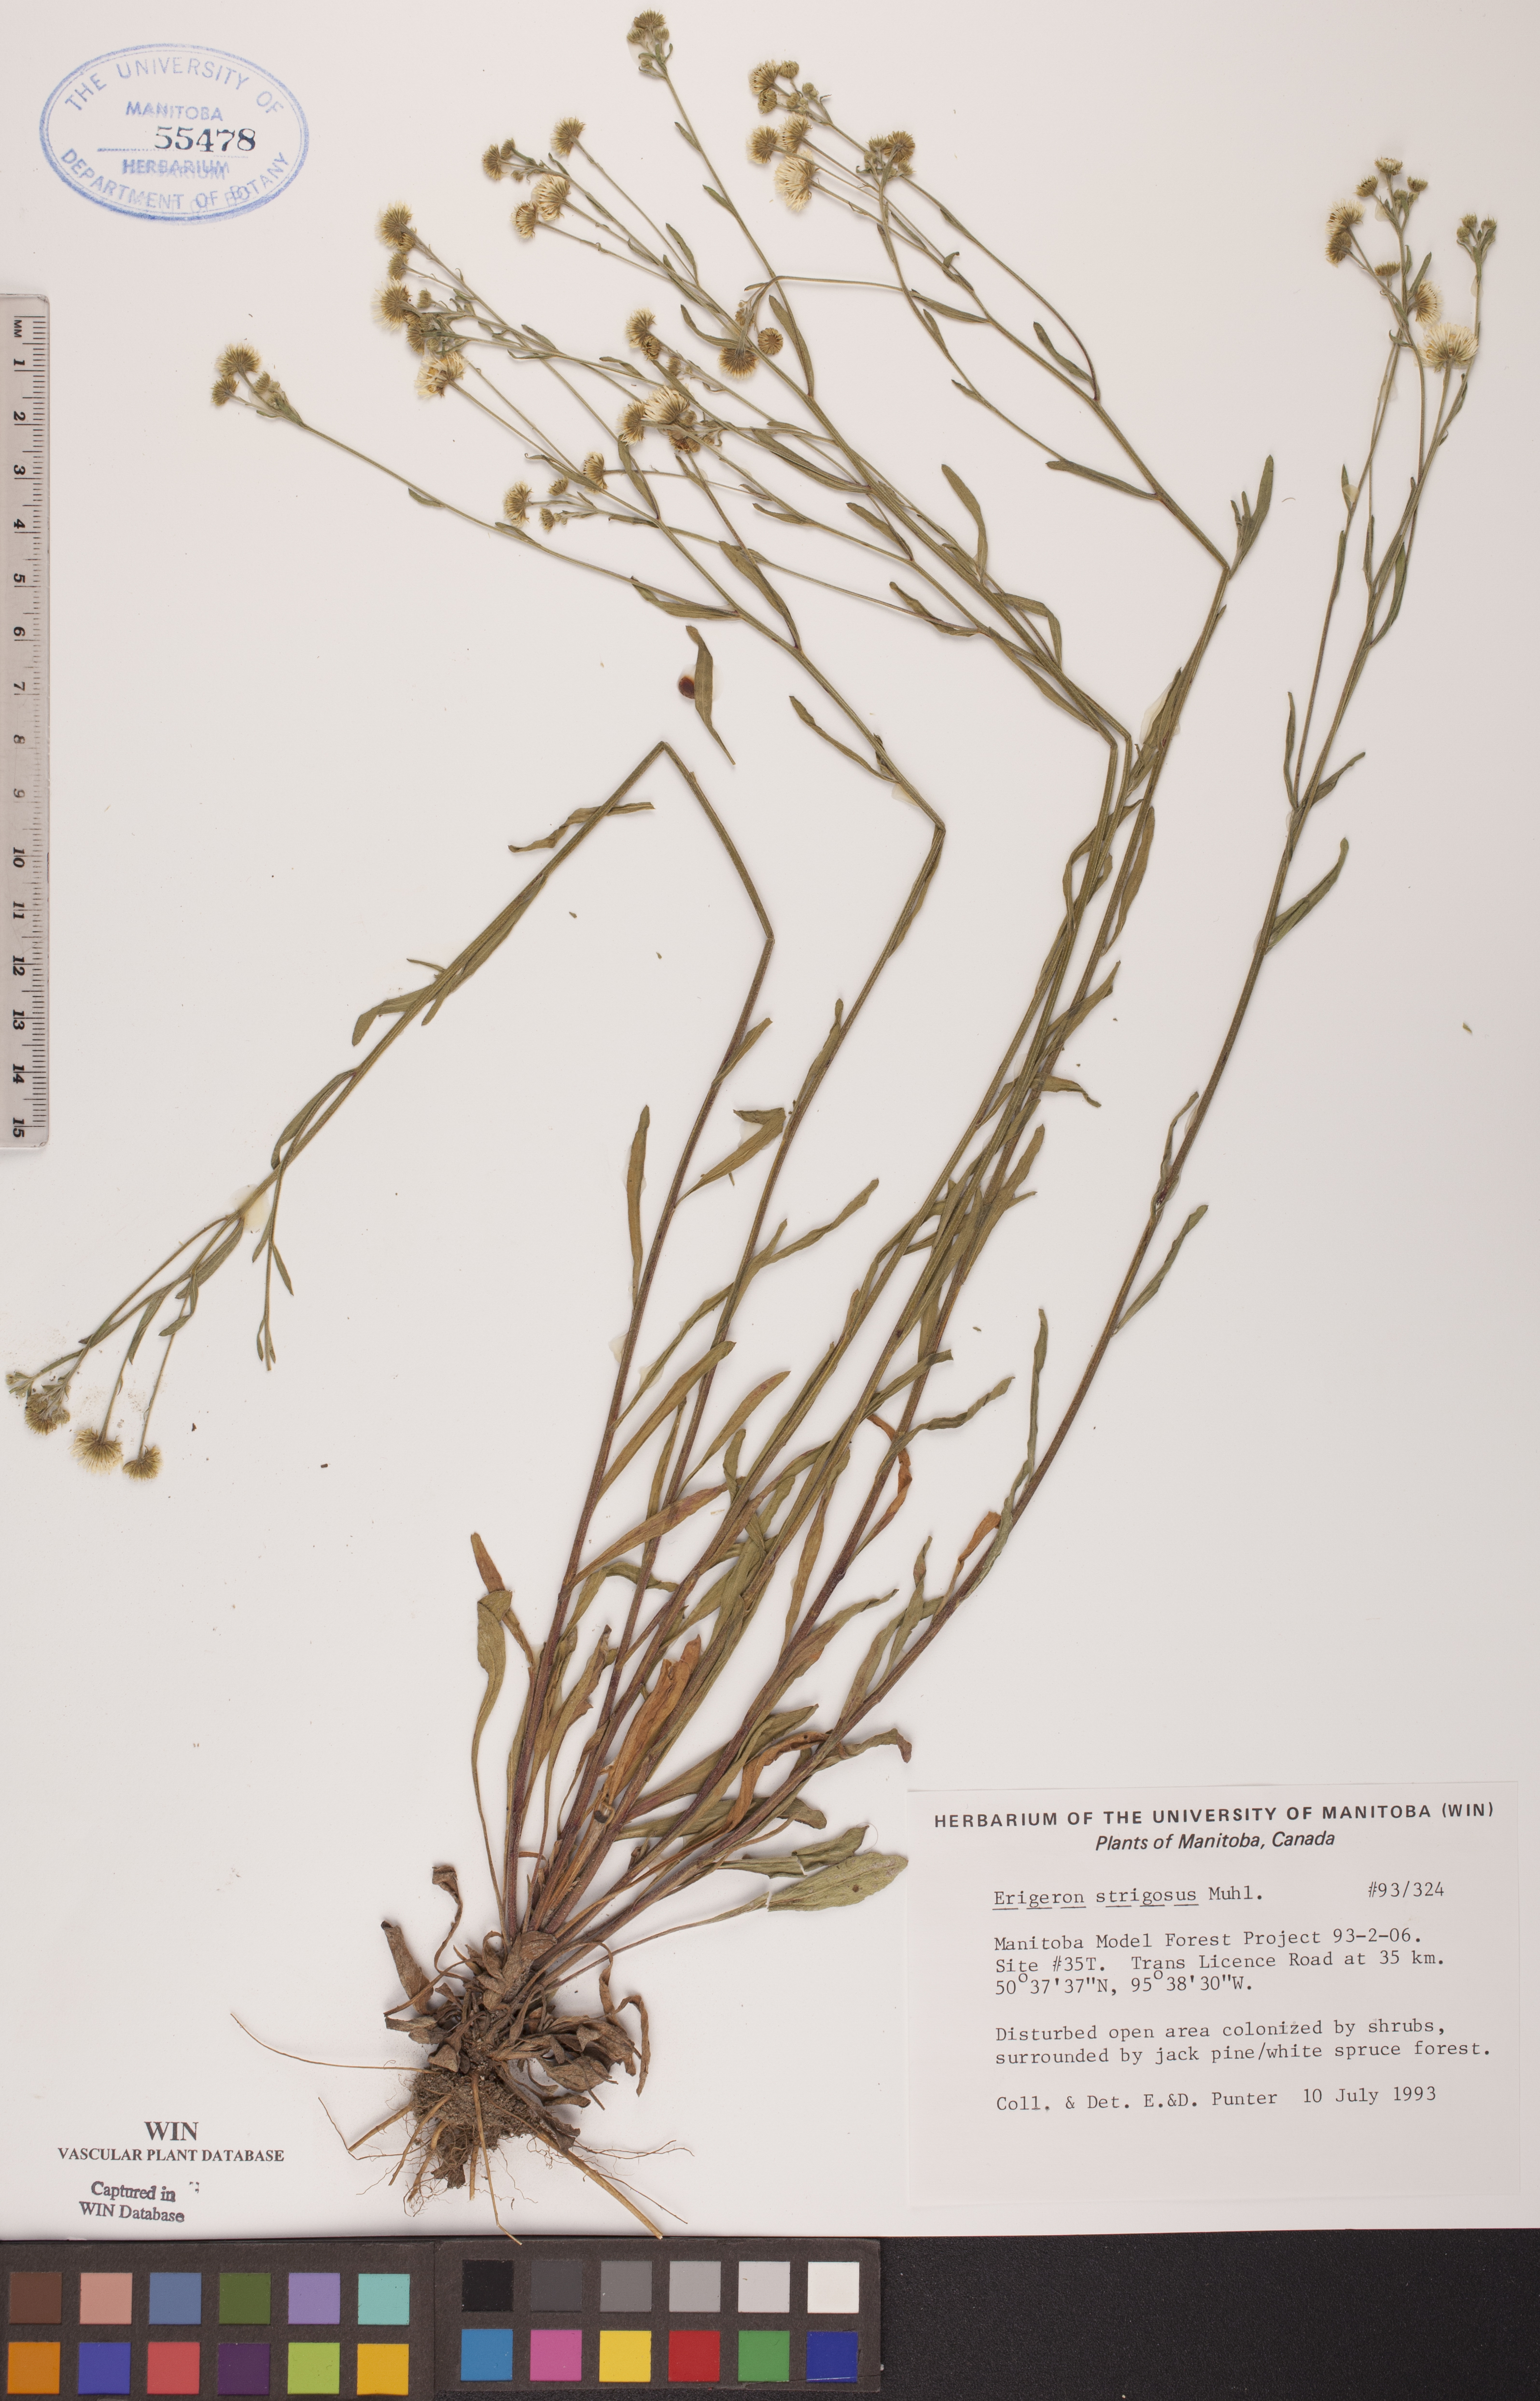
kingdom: Plantae
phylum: Tracheophyta
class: Magnoliopsida
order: Asterales
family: Asteraceae
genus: Erigeron
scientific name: Erigeron strigosus
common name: Common eastern fleabane
